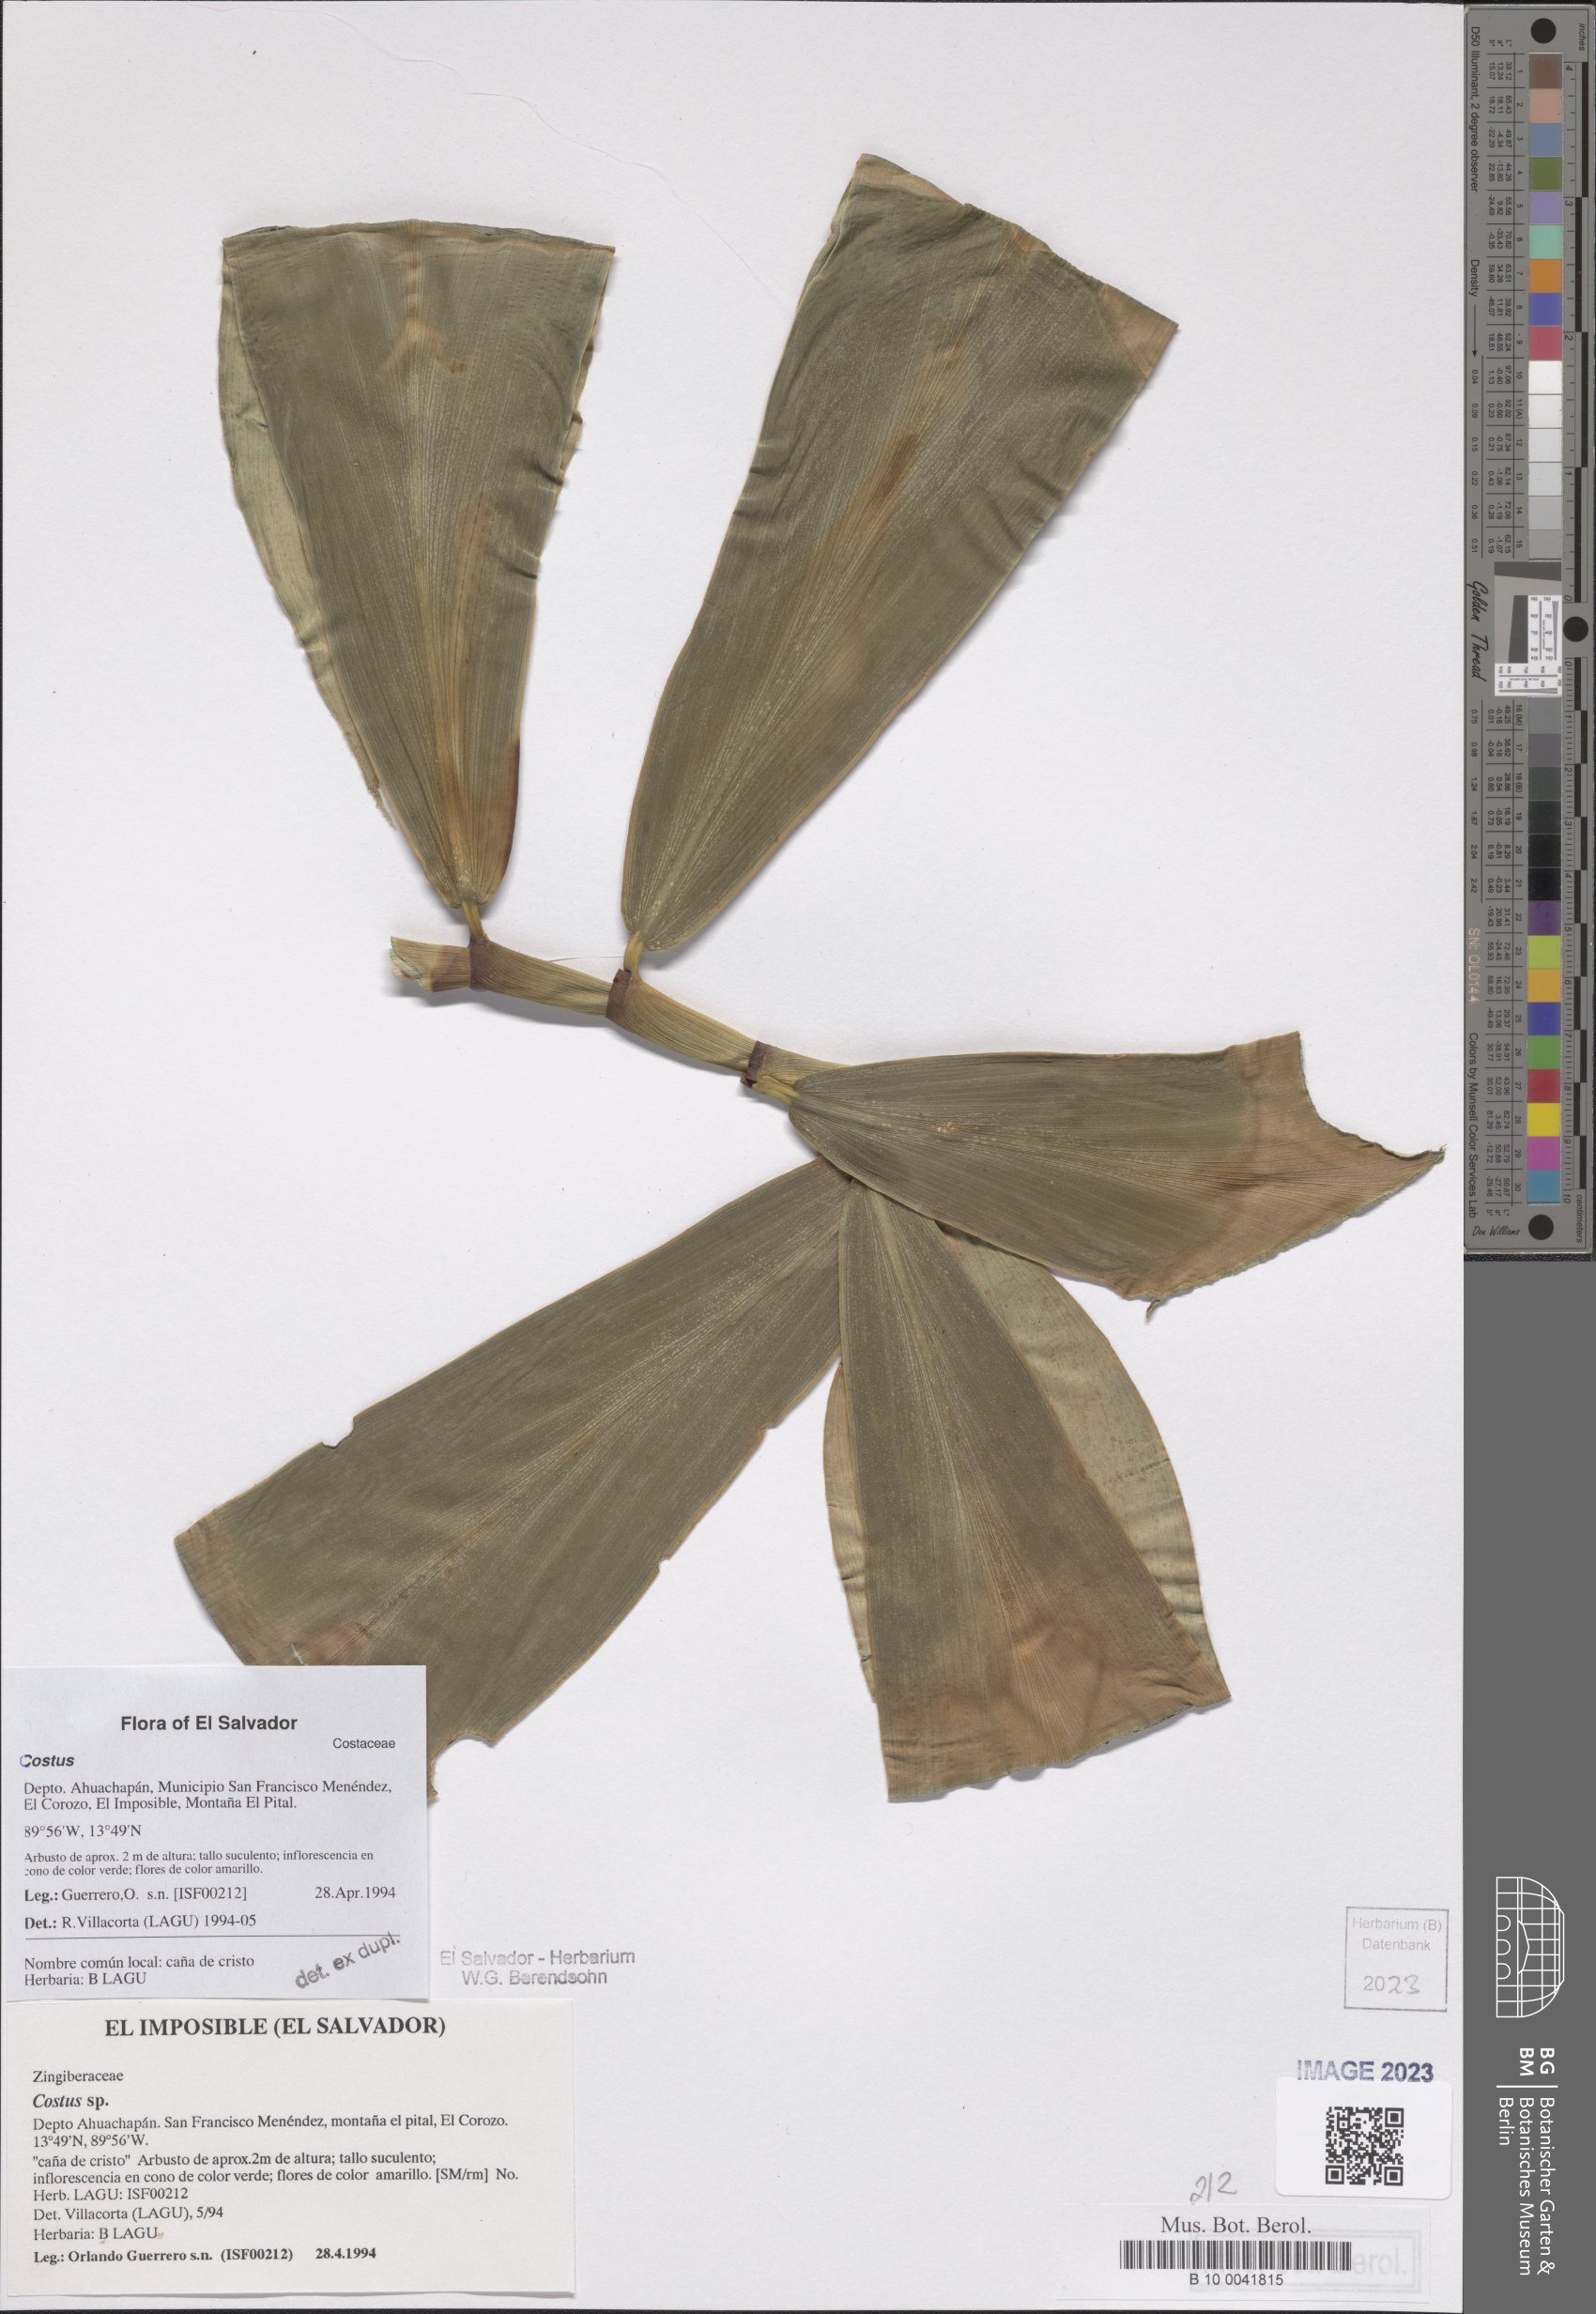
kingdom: Plantae
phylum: Tracheophyta
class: Liliopsida
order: Zingiberales
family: Costaceae
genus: Costus
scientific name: Costus
